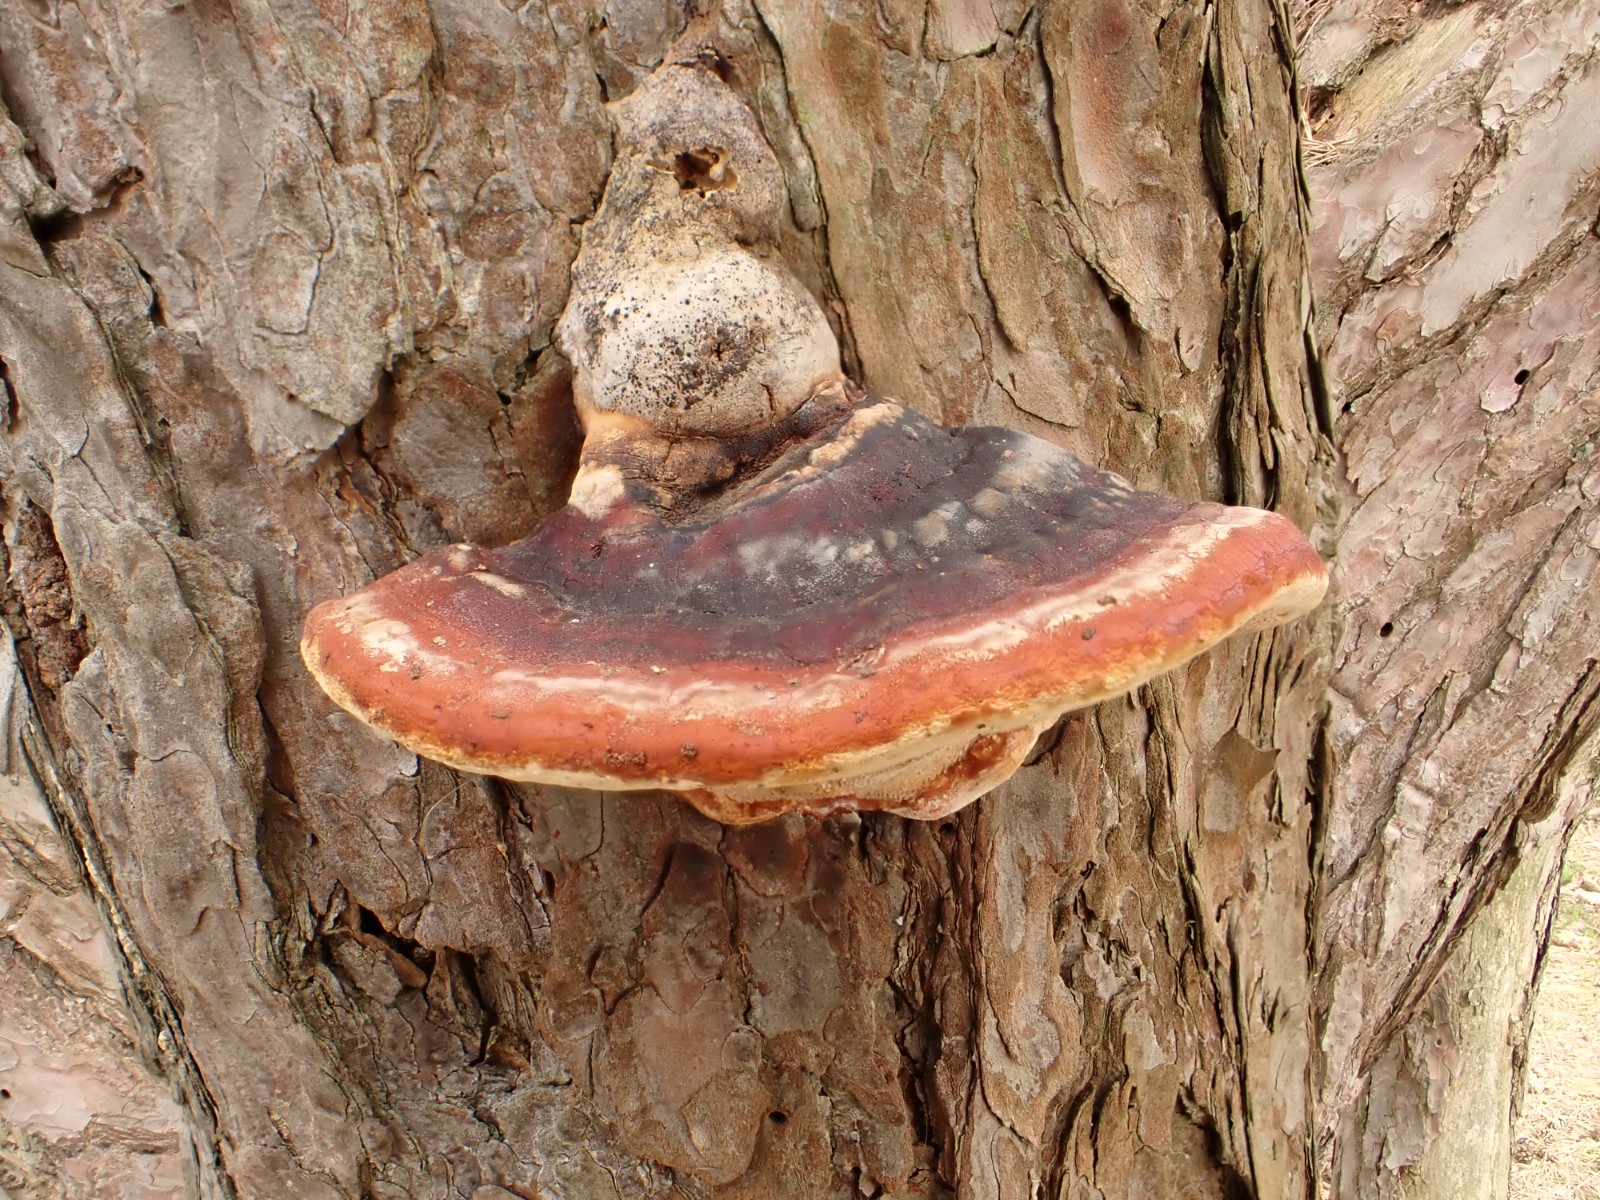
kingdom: Fungi
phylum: Basidiomycota
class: Agaricomycetes
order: Polyporales
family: Fomitopsidaceae
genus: Fomitopsis
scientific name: Fomitopsis pinicola
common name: randbæltet hovporesvamp
